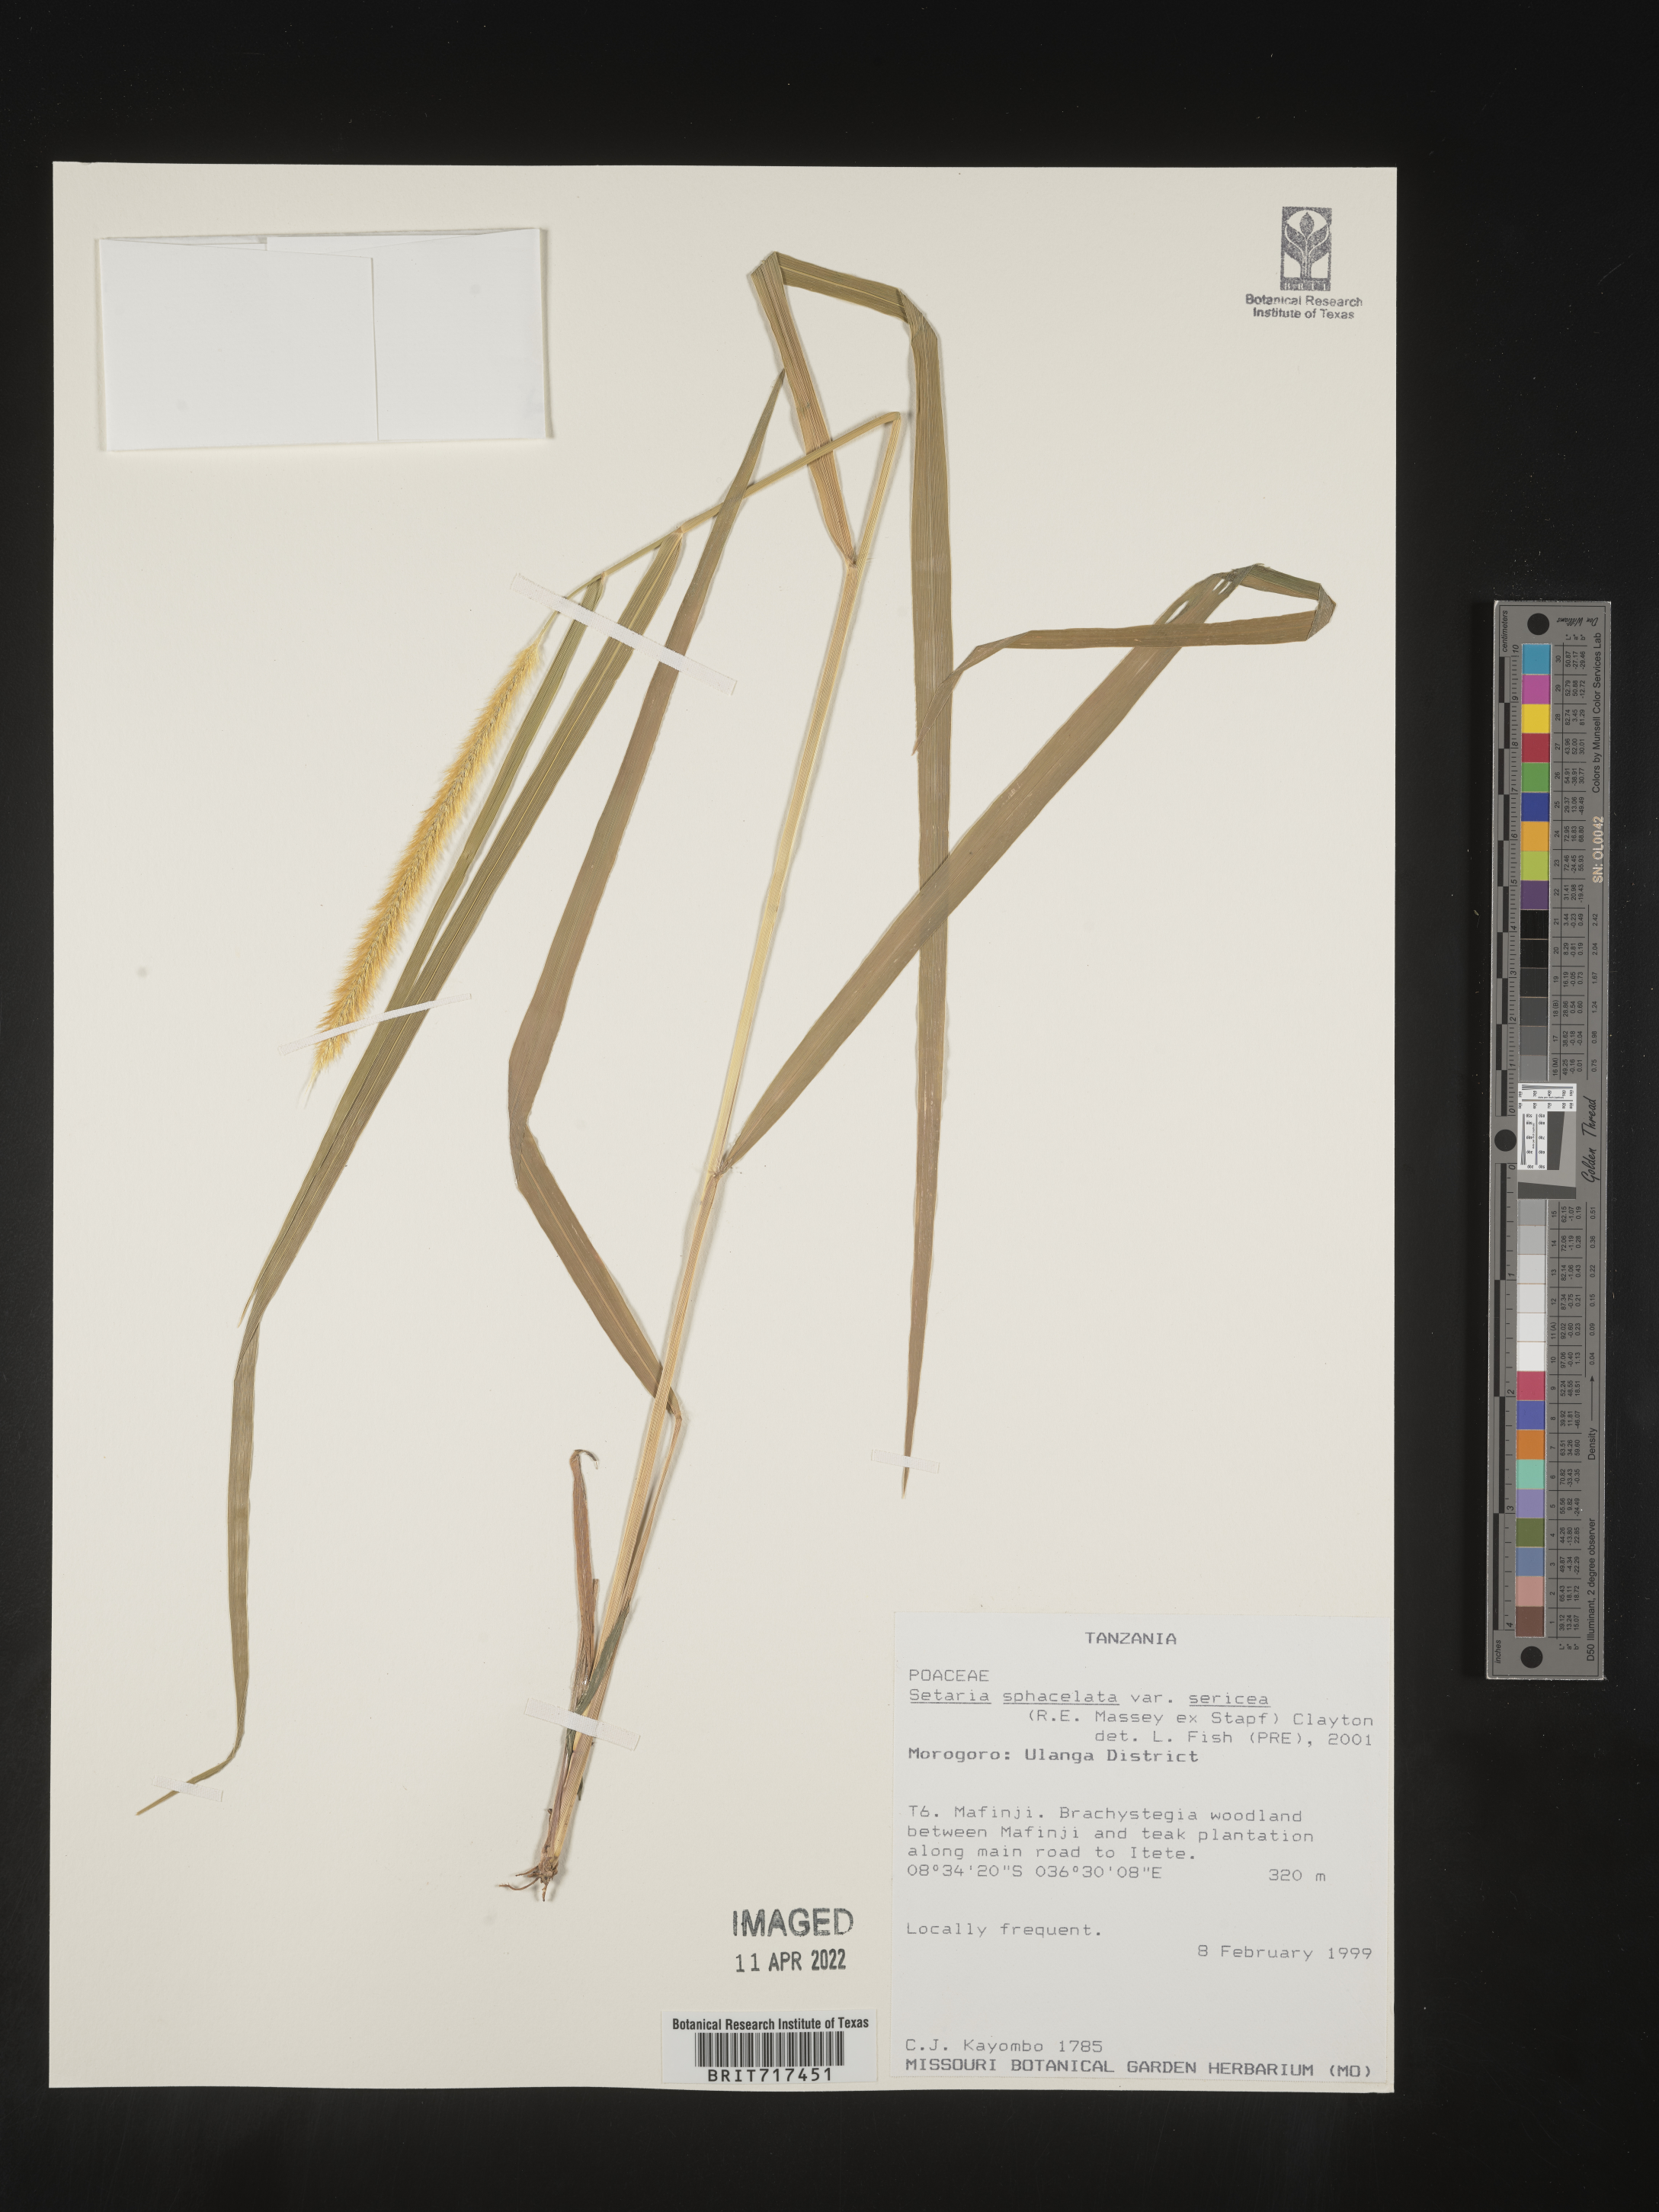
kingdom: Plantae
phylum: Tracheophyta
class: Liliopsida
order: Poales
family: Poaceae
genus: Setaria
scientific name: Setaria
